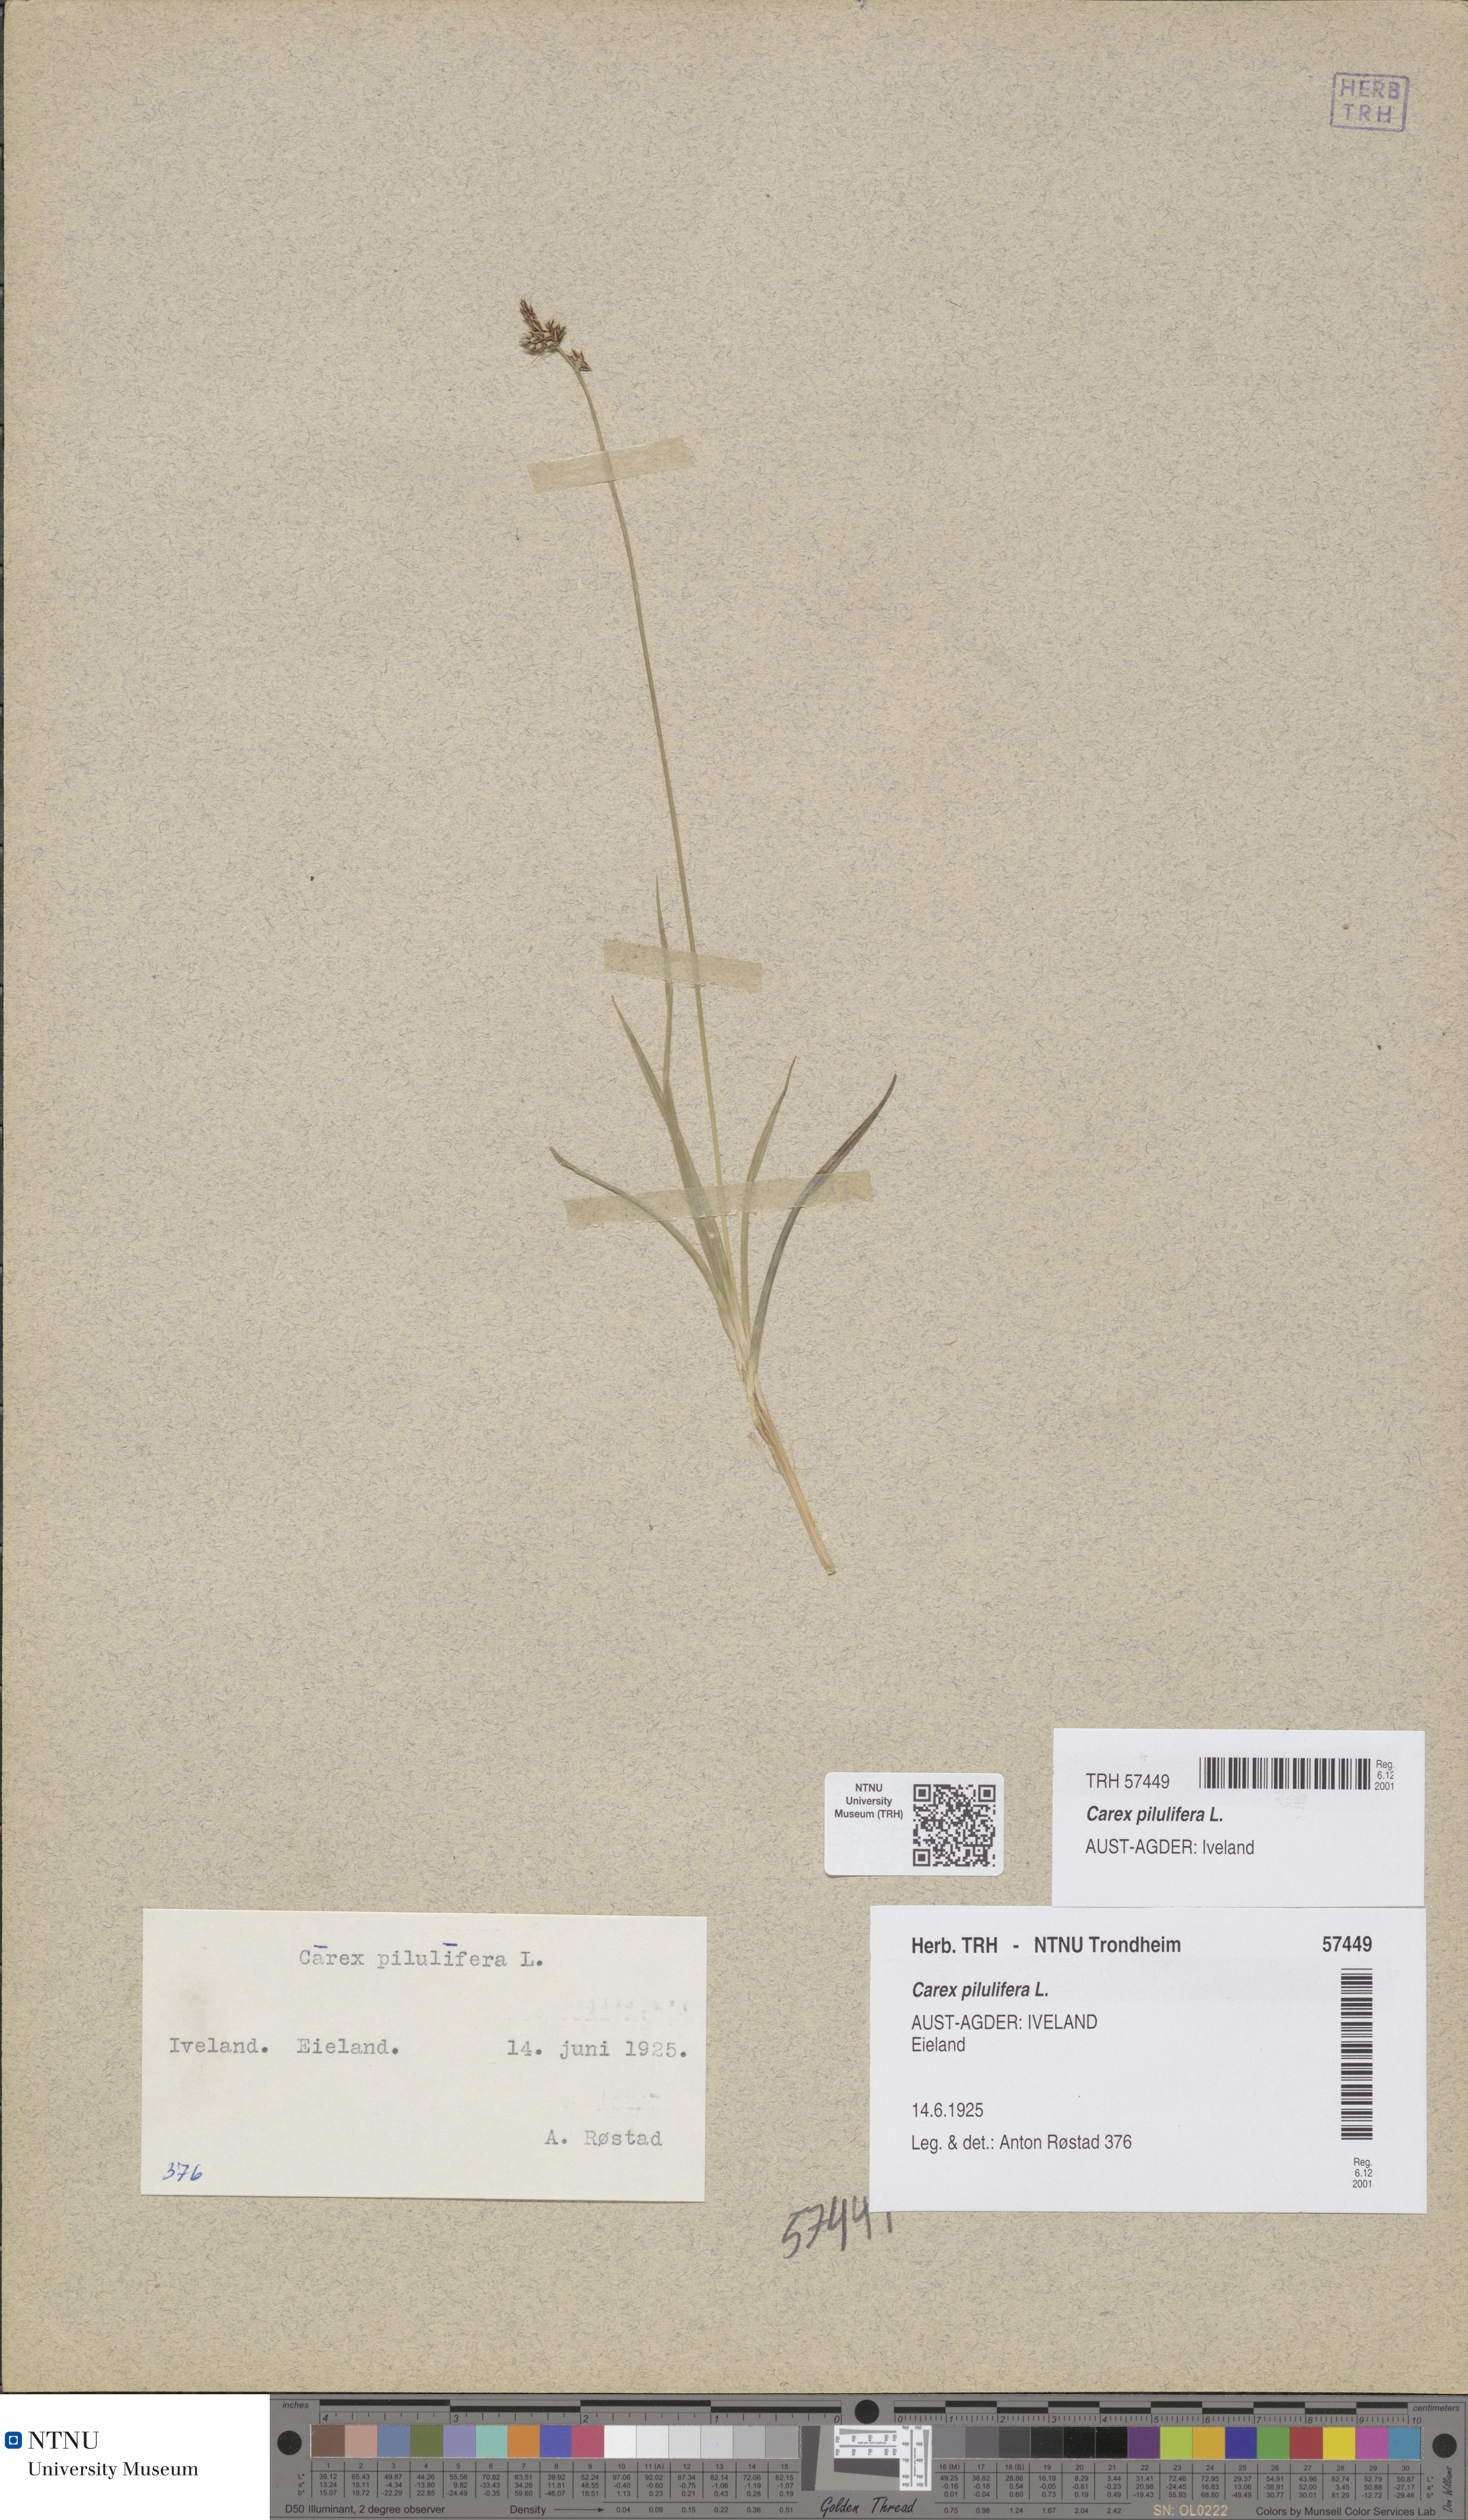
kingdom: Plantae
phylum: Tracheophyta
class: Liliopsida
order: Poales
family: Cyperaceae
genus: Carex
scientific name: Carex pilulifera
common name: Pill sedge
